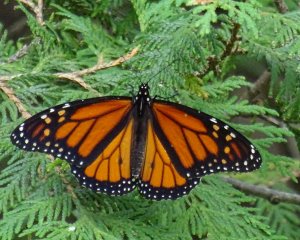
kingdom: Animalia
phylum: Arthropoda
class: Insecta
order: Lepidoptera
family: Nymphalidae
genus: Danaus
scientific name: Danaus plexippus
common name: Monarch
